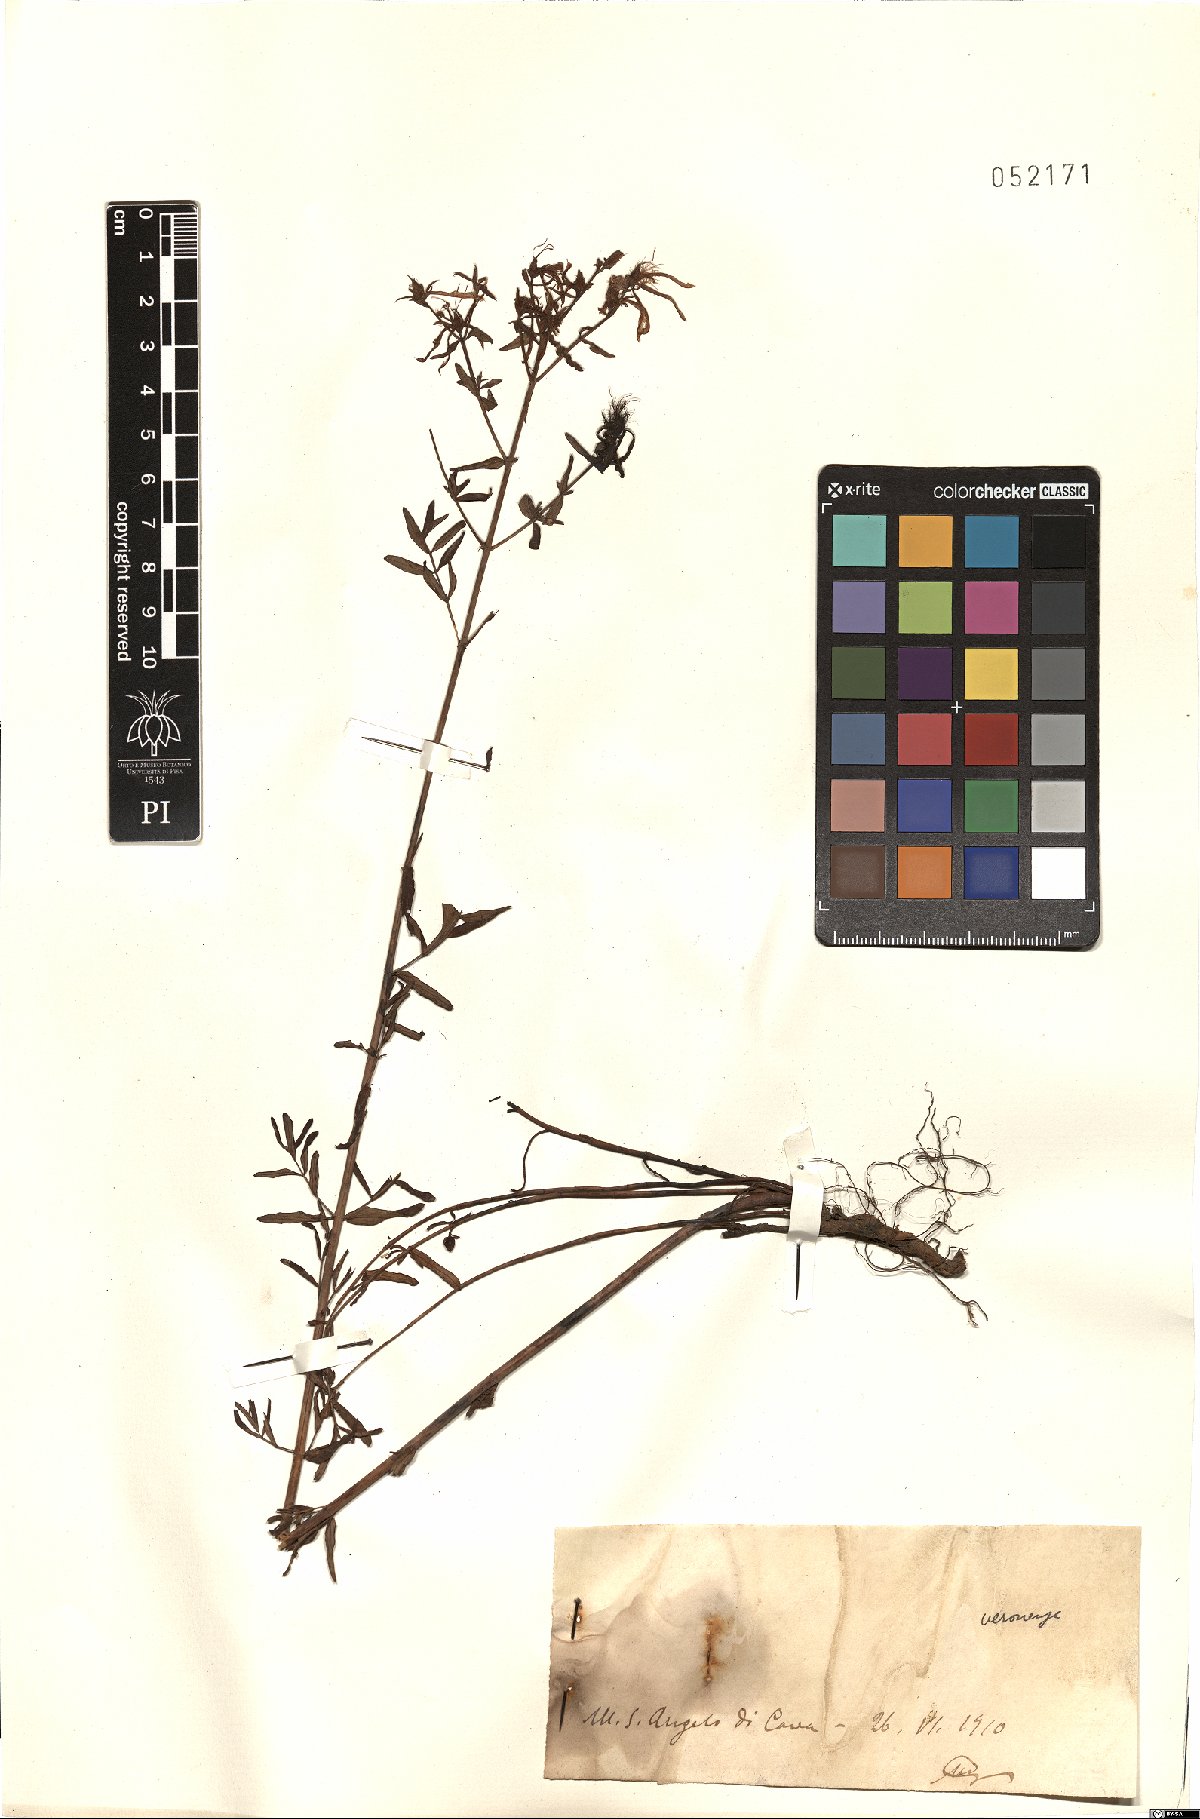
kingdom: Plantae
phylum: Tracheophyta
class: Magnoliopsida
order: Malpighiales
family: Hypericaceae
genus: Hypericum
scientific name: Hypericum veronense
